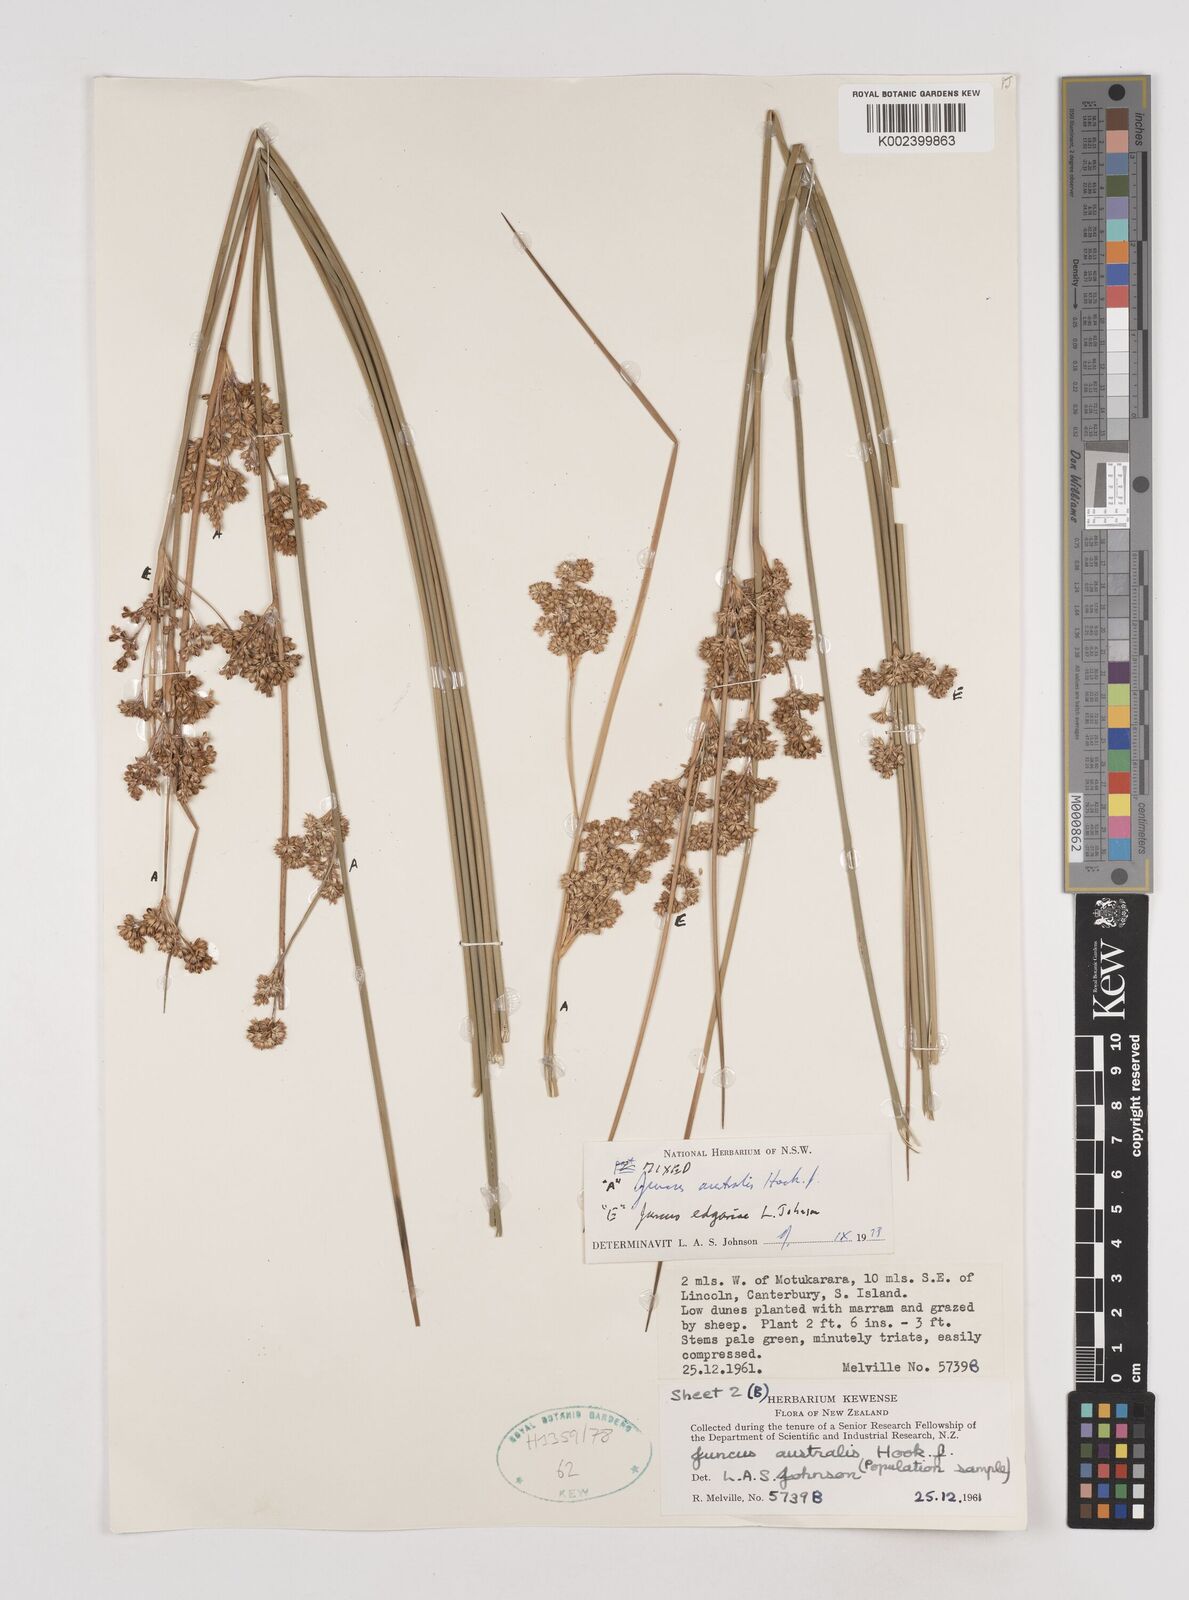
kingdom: Plantae
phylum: Tracheophyta
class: Liliopsida
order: Poales
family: Juncaceae
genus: Juncus
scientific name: Juncus australis
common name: Austral rush
